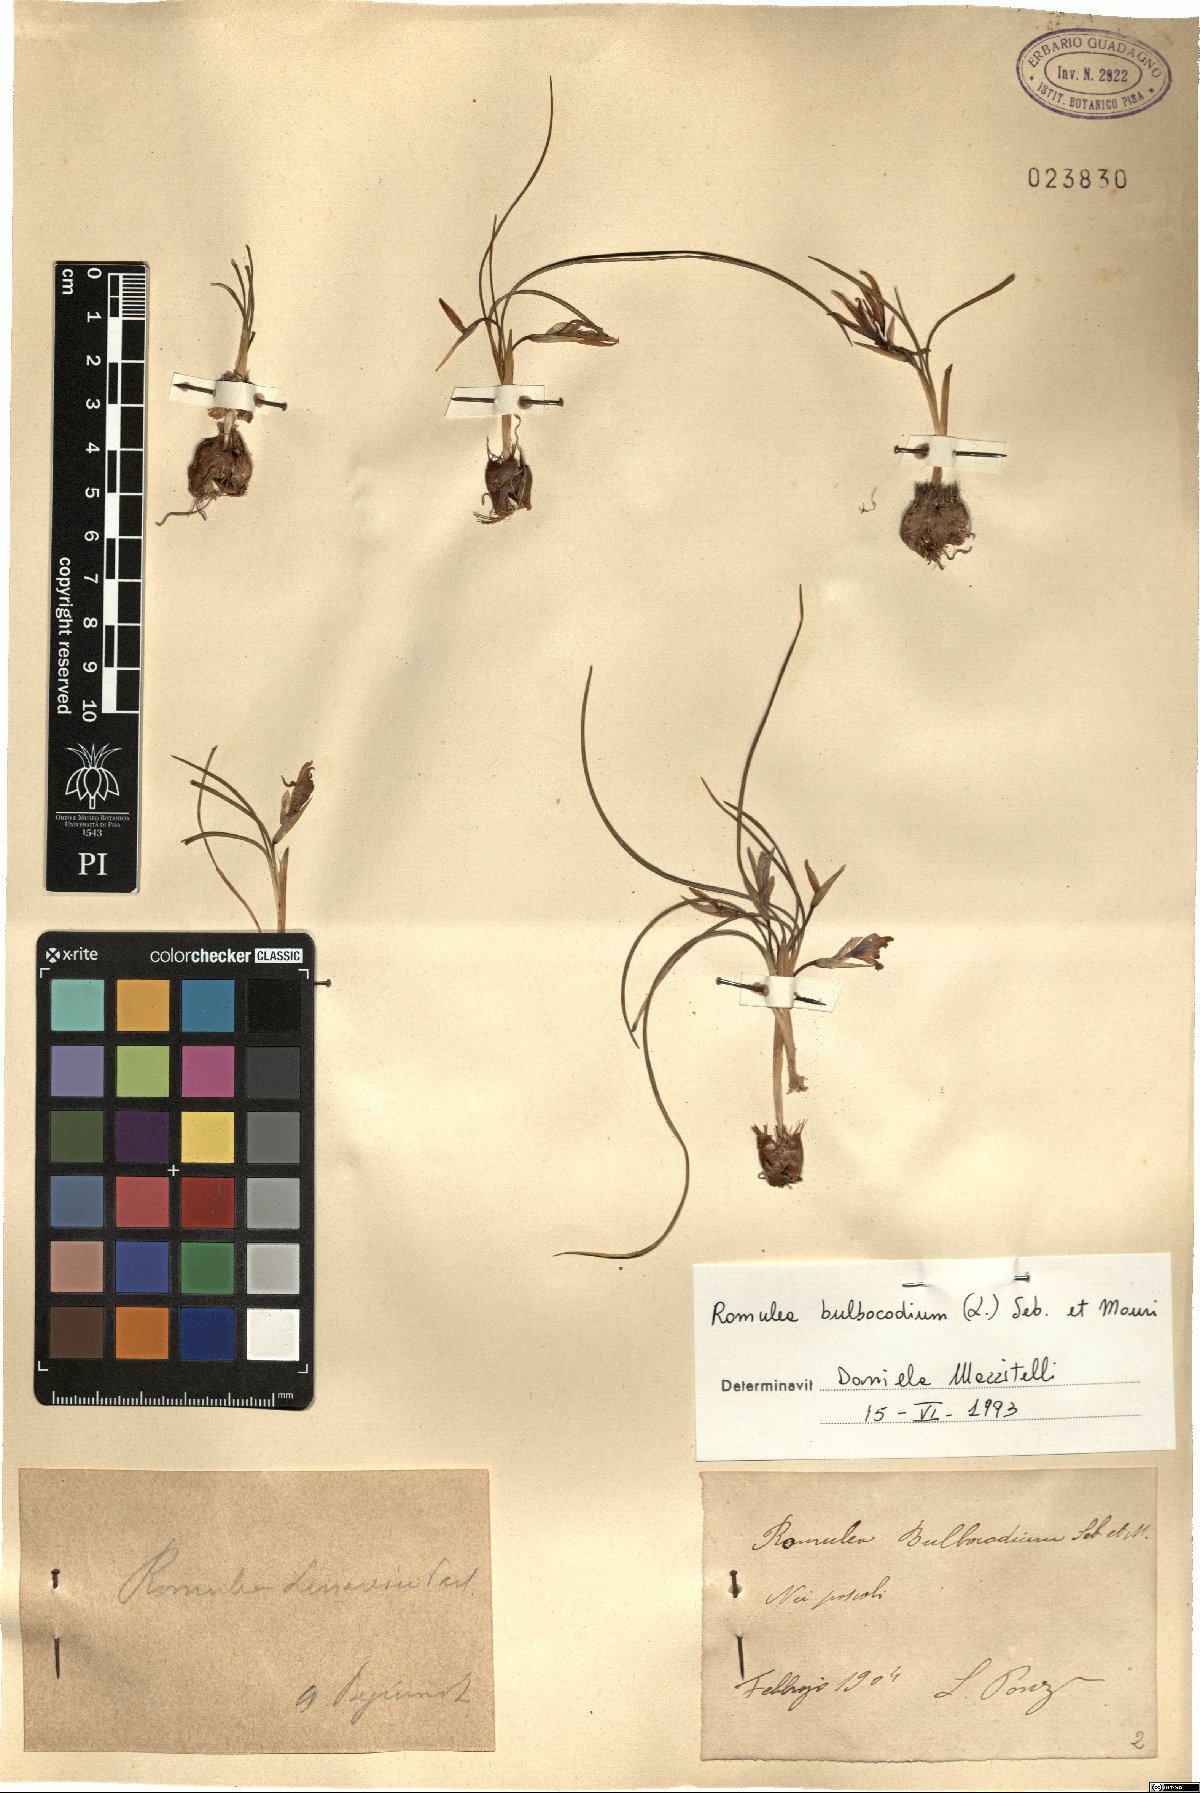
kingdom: Plantae
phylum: Tracheophyta
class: Liliopsida
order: Asparagales
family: Iridaceae
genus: Romulea
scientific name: Romulea bulbocodium
